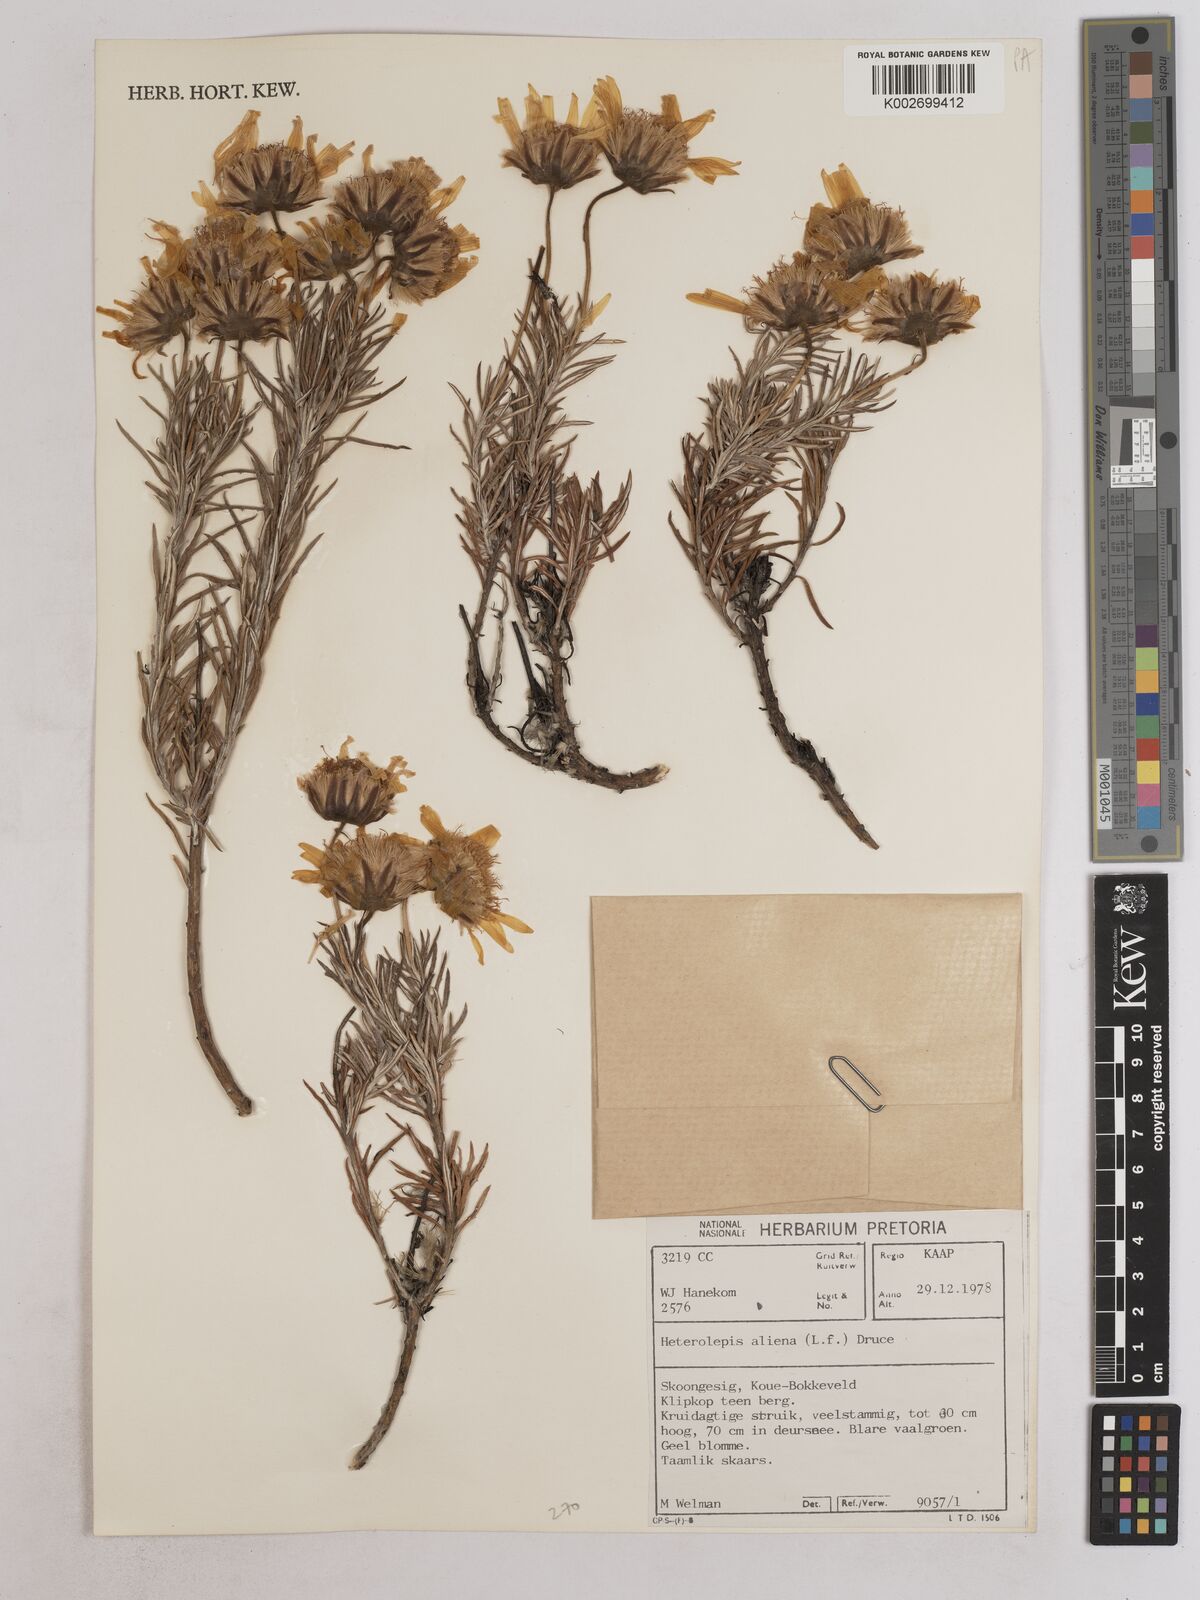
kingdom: Plantae
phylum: Tracheophyta
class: Magnoliopsida
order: Asterales
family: Asteraceae
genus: Heterolepis
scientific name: Heterolepis aliena
